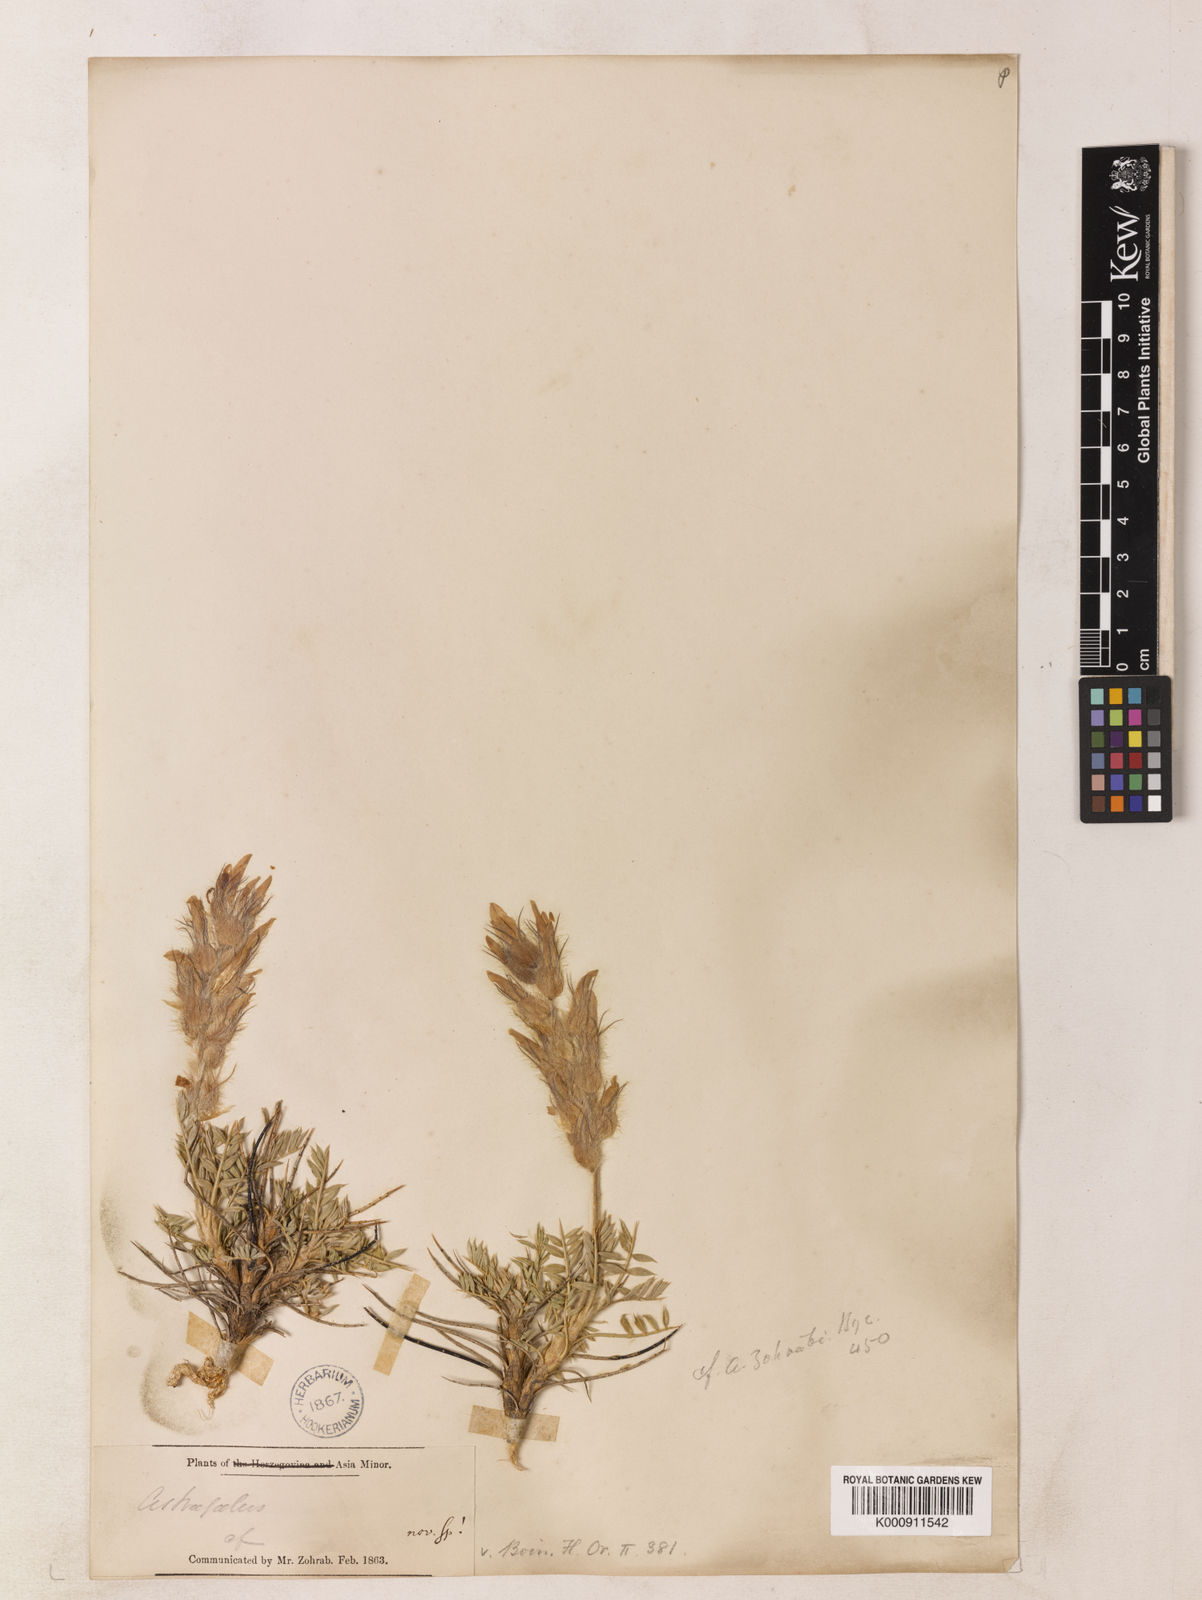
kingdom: Plantae
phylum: Tracheophyta
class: Magnoliopsida
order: Fabales
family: Fabaceae
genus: Astragalus
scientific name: Astragalus lagopodioides
